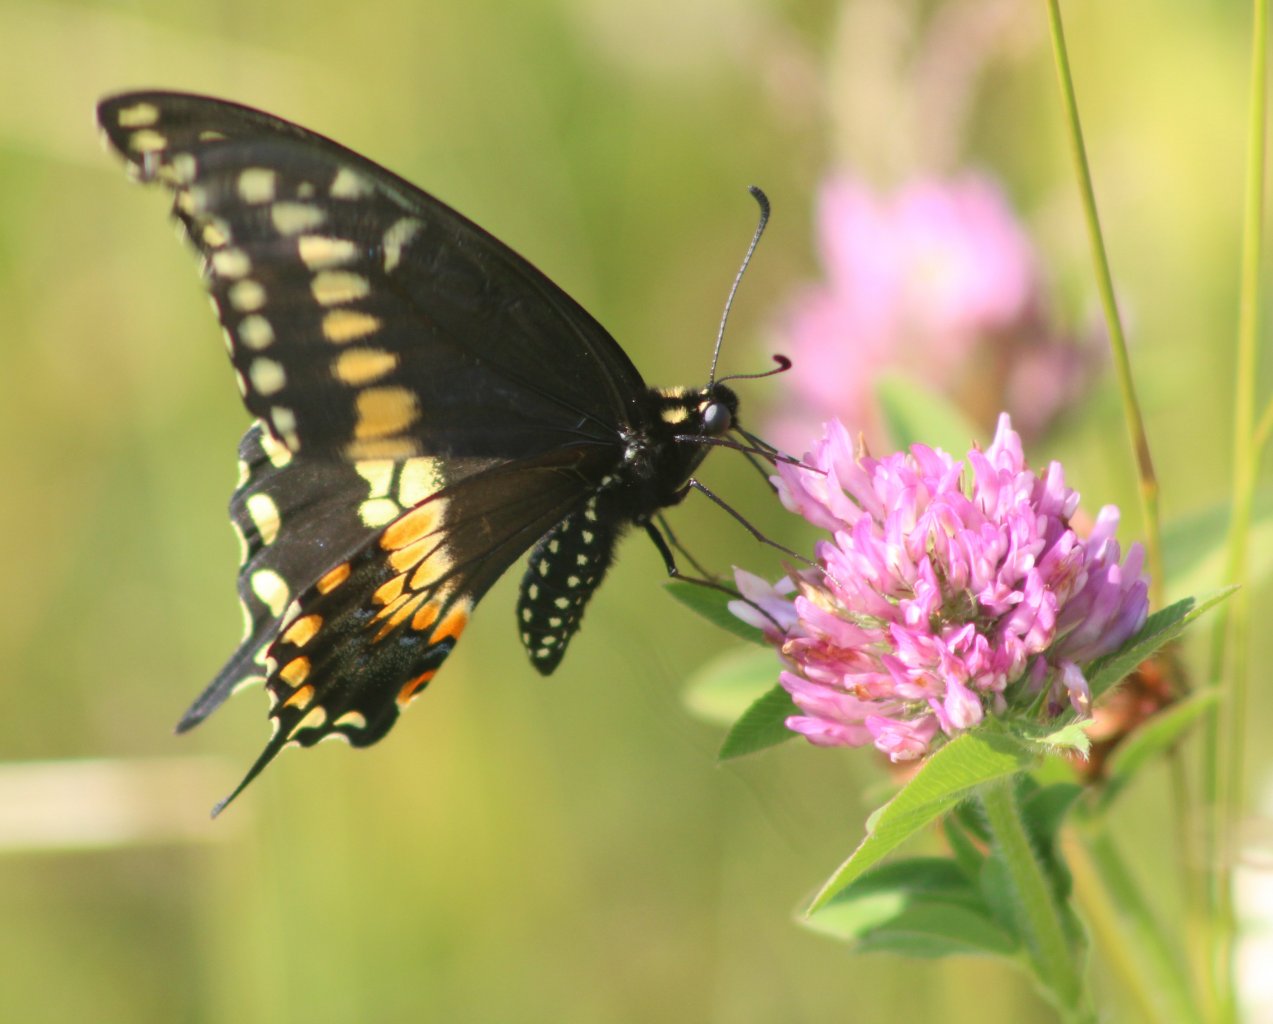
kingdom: Animalia
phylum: Arthropoda
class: Insecta
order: Lepidoptera
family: Papilionidae
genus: Papilio
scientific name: Papilio polyxenes
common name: Black Swallowtail
